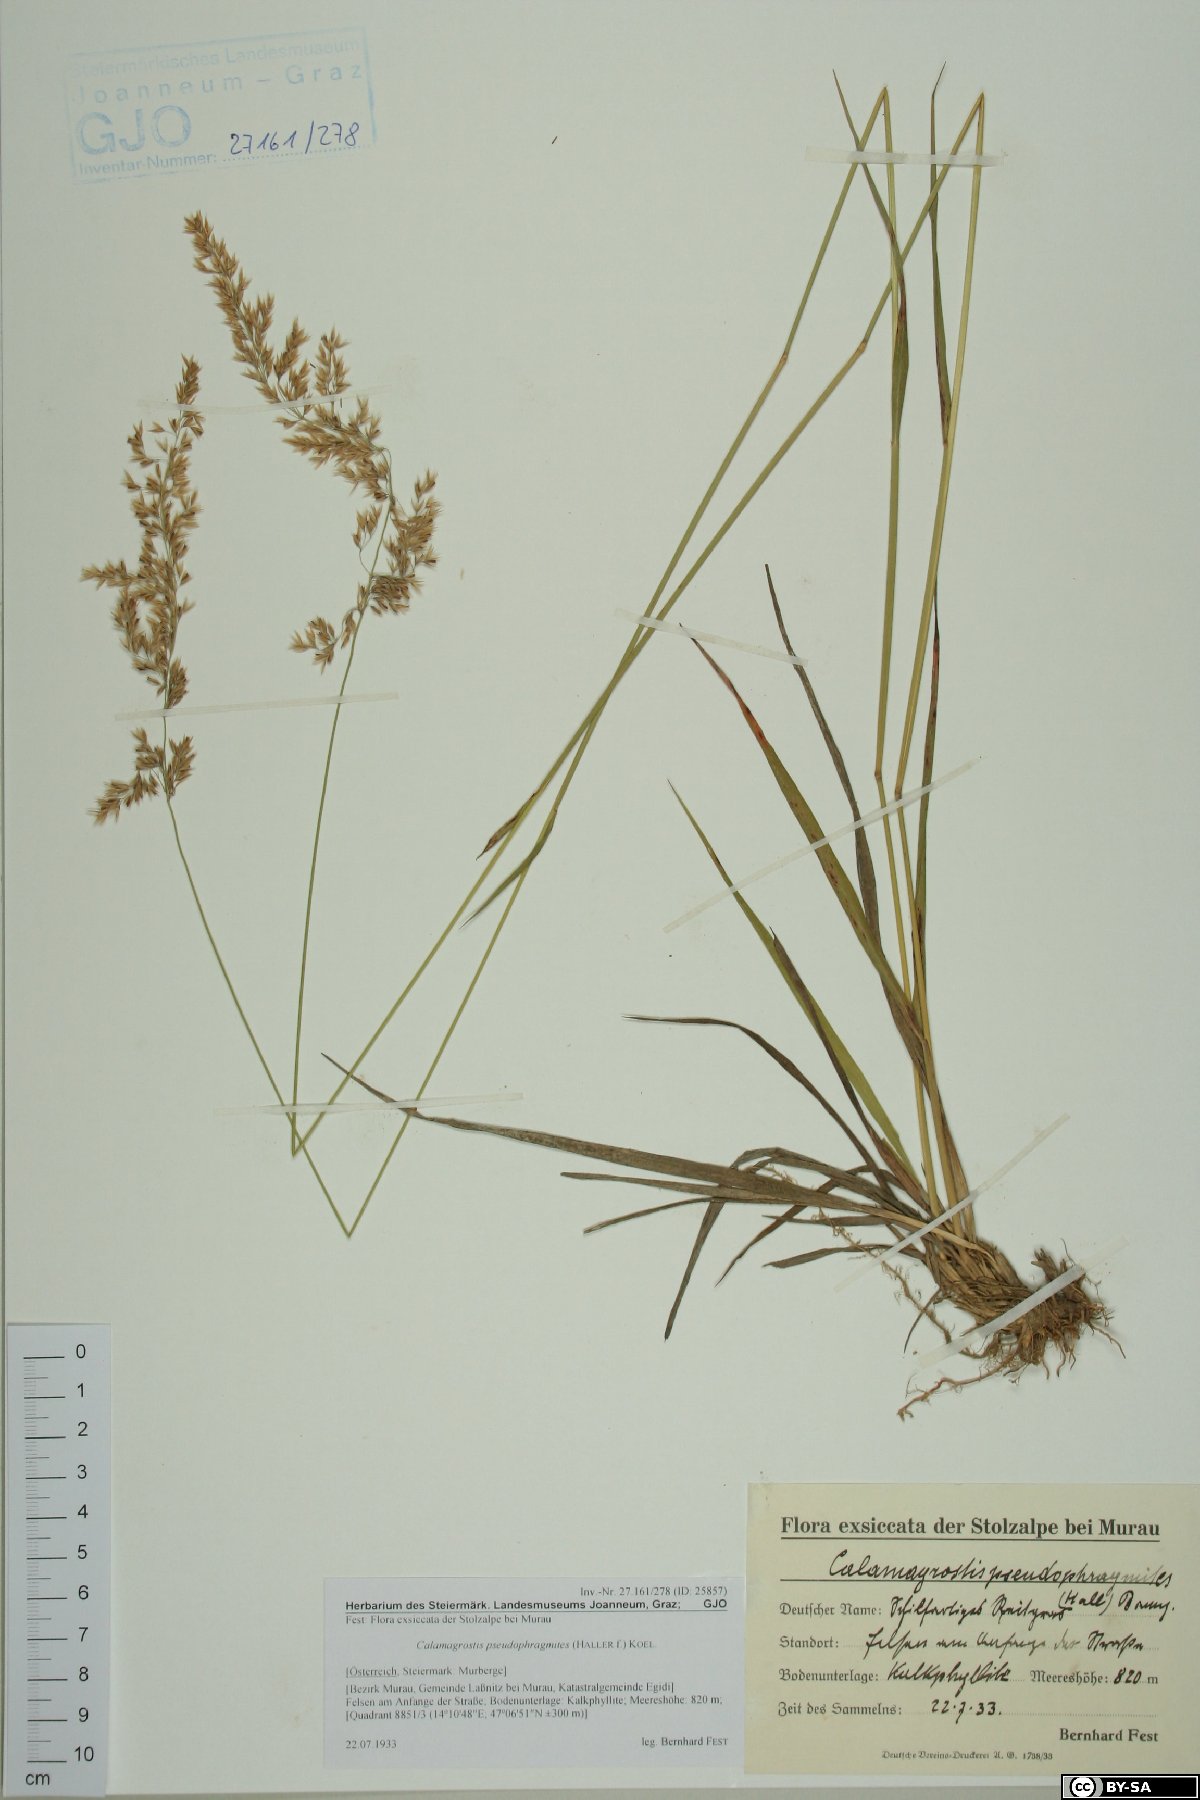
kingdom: Plantae
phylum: Tracheophyta
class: Liliopsida
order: Poales
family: Poaceae
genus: Calamagrostis
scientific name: Calamagrostis pseudophragmites
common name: Coastal small-reed
